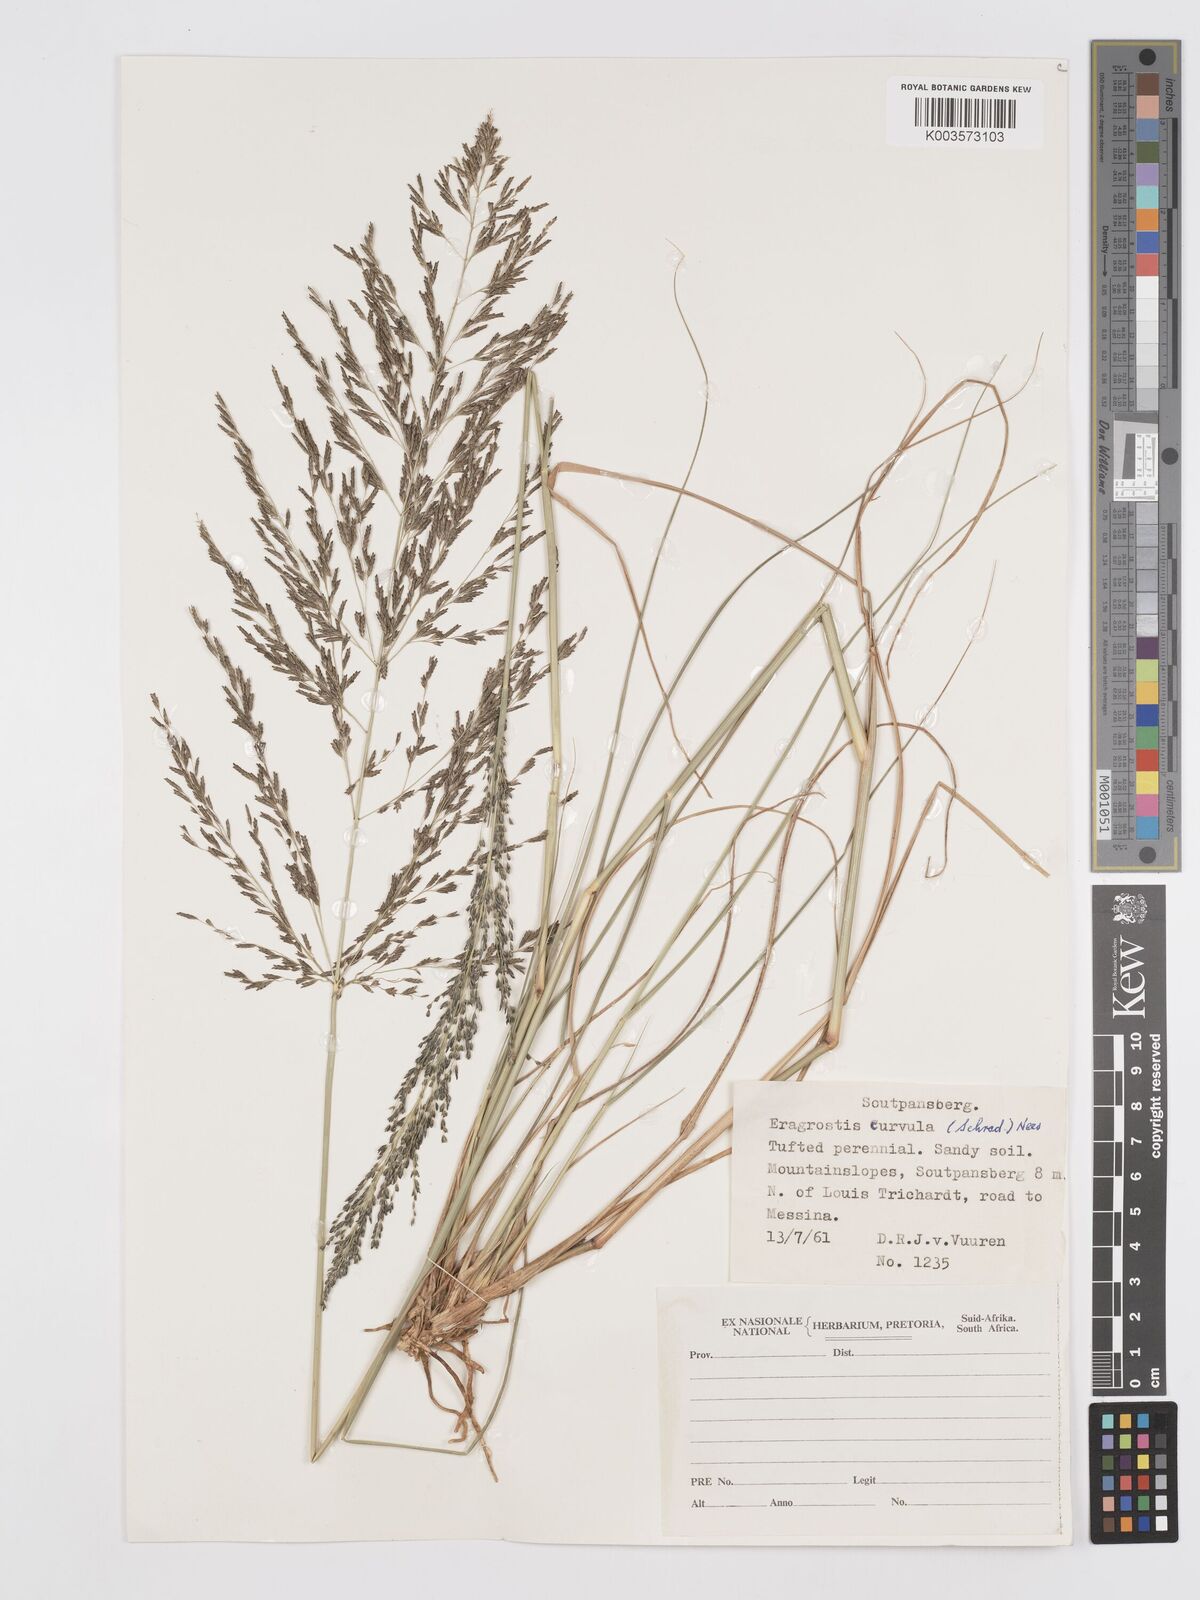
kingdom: Plantae
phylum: Tracheophyta
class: Liliopsida
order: Poales
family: Poaceae
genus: Eragrostis
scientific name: Eragrostis curvula
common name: African love-grass
